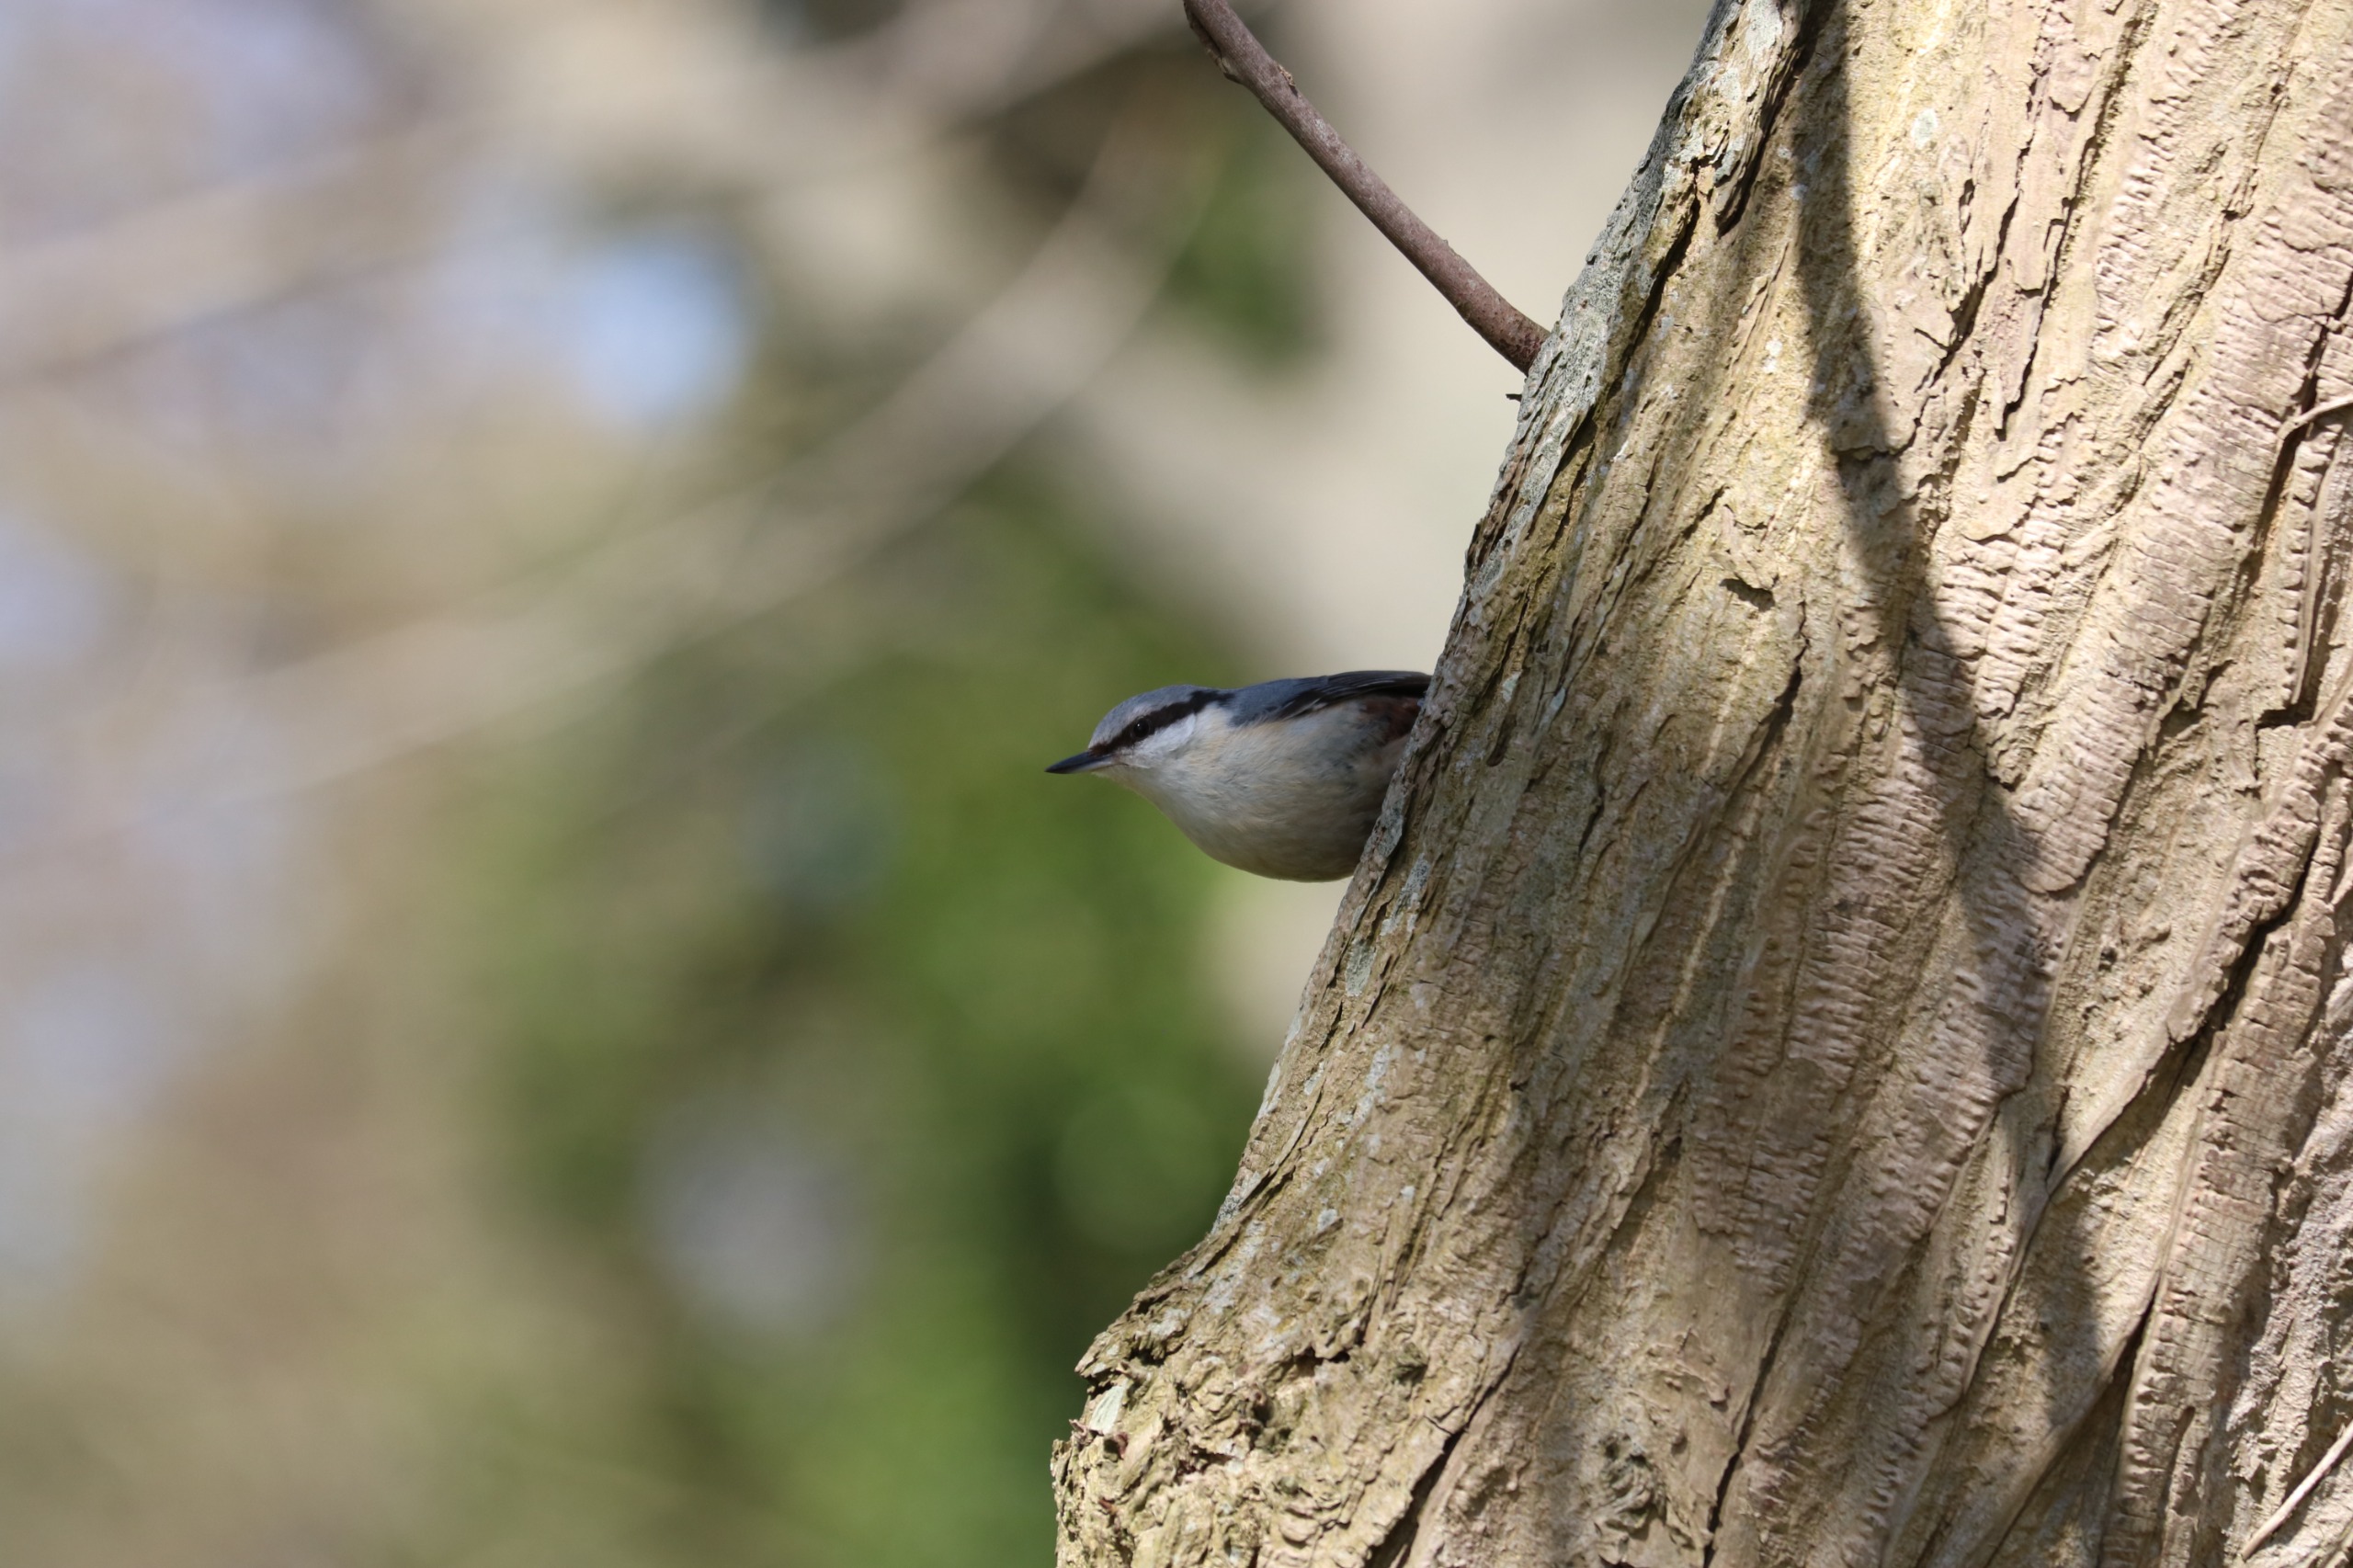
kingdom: Animalia
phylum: Chordata
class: Aves
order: Passeriformes
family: Sittidae
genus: Sitta
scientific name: Sitta europaea
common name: Spætmejse
